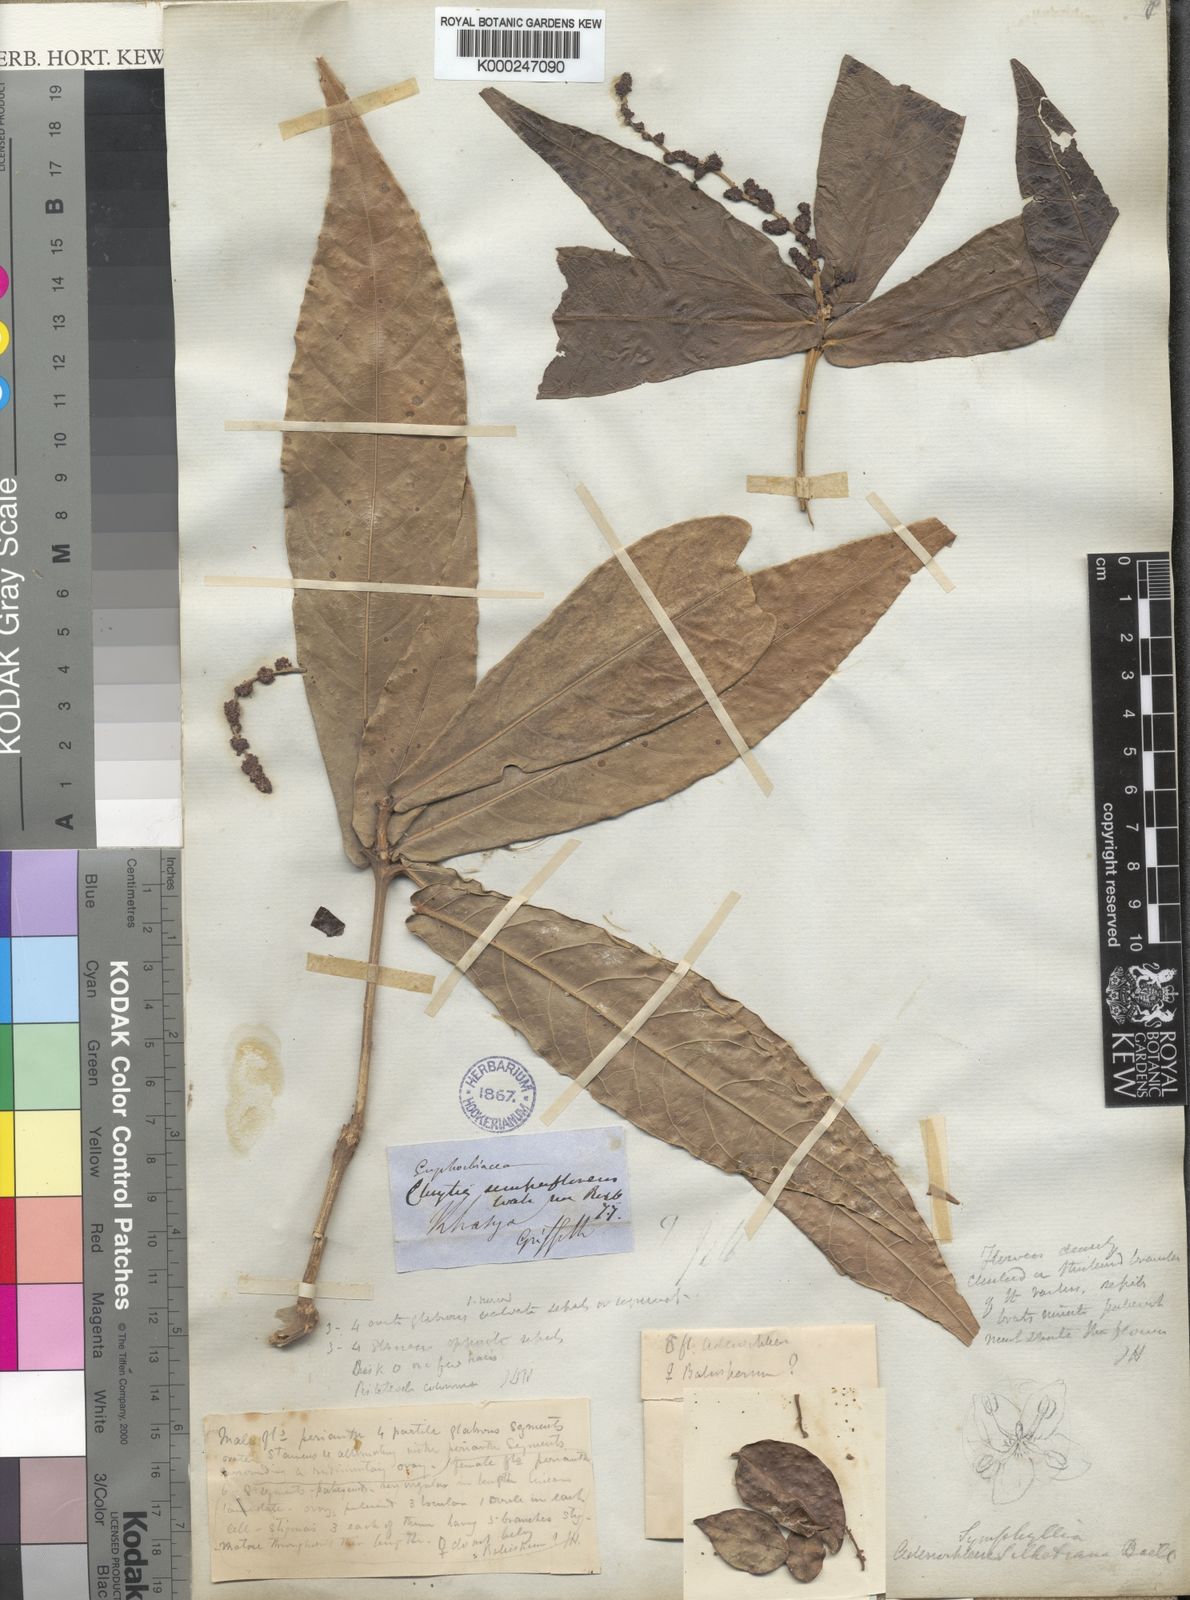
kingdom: Plantae
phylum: Tracheophyta
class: Magnoliopsida
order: Malpighiales
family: Euphorbiaceae
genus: Epiprinus
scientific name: Epiprinus siletianus
